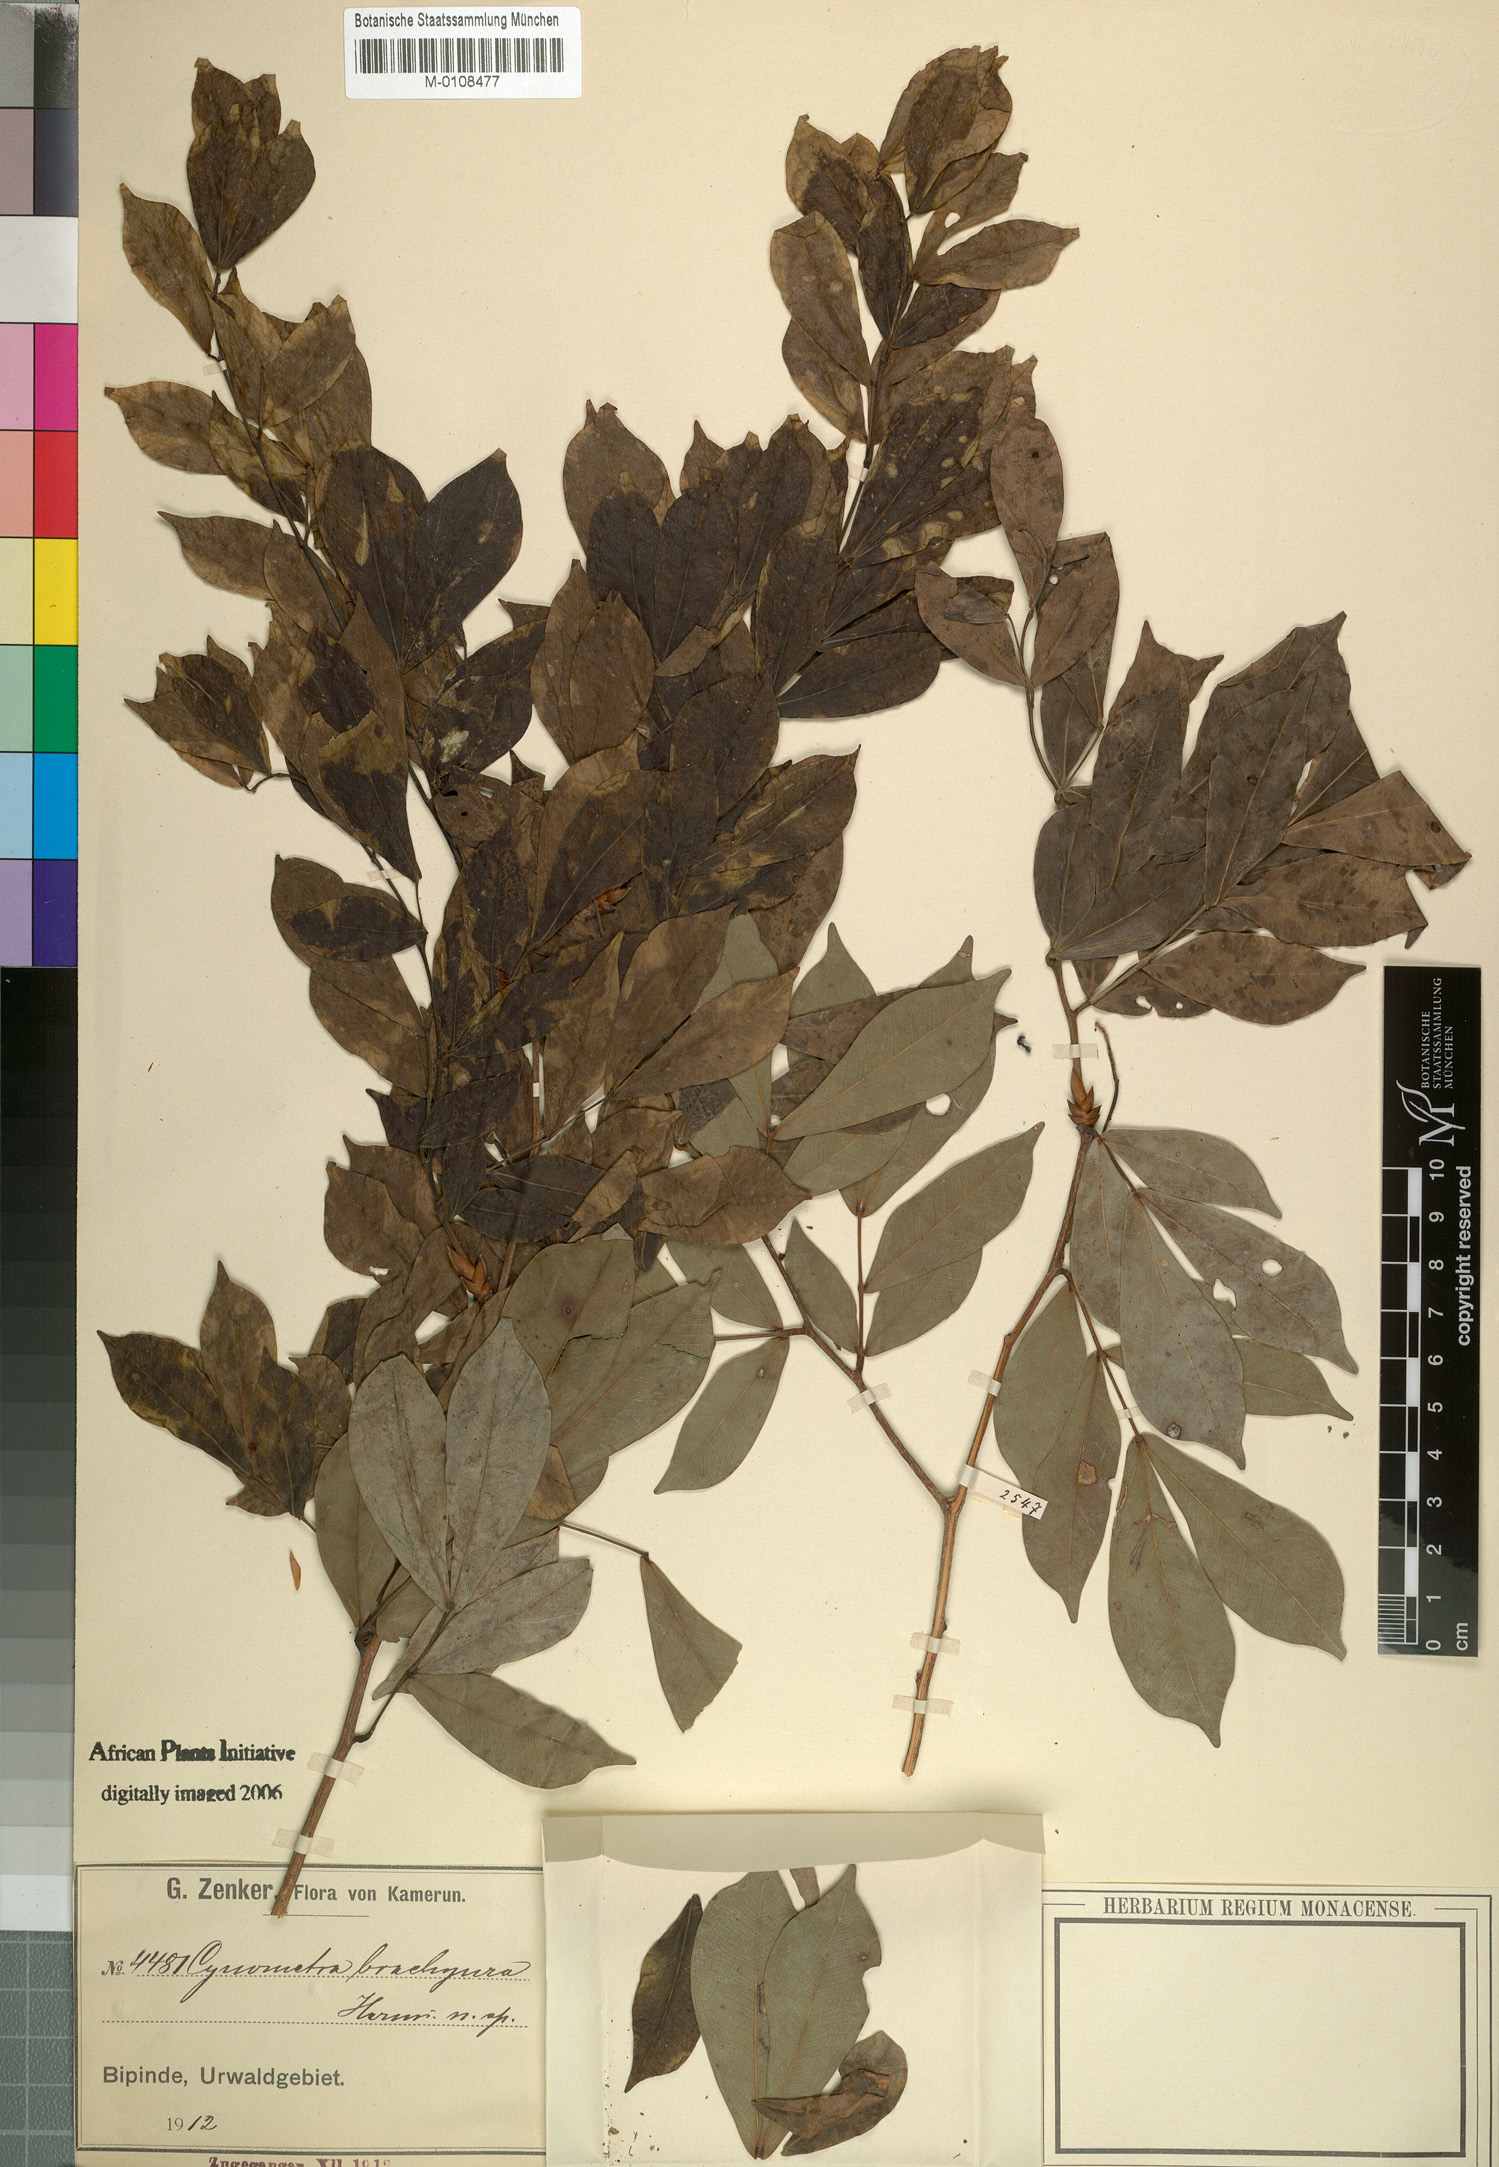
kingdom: Plantae
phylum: Tracheophyta
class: Magnoliopsida
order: Fabales
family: Fabaceae
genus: Hymenostegia
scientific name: Hymenostegia brachyura
